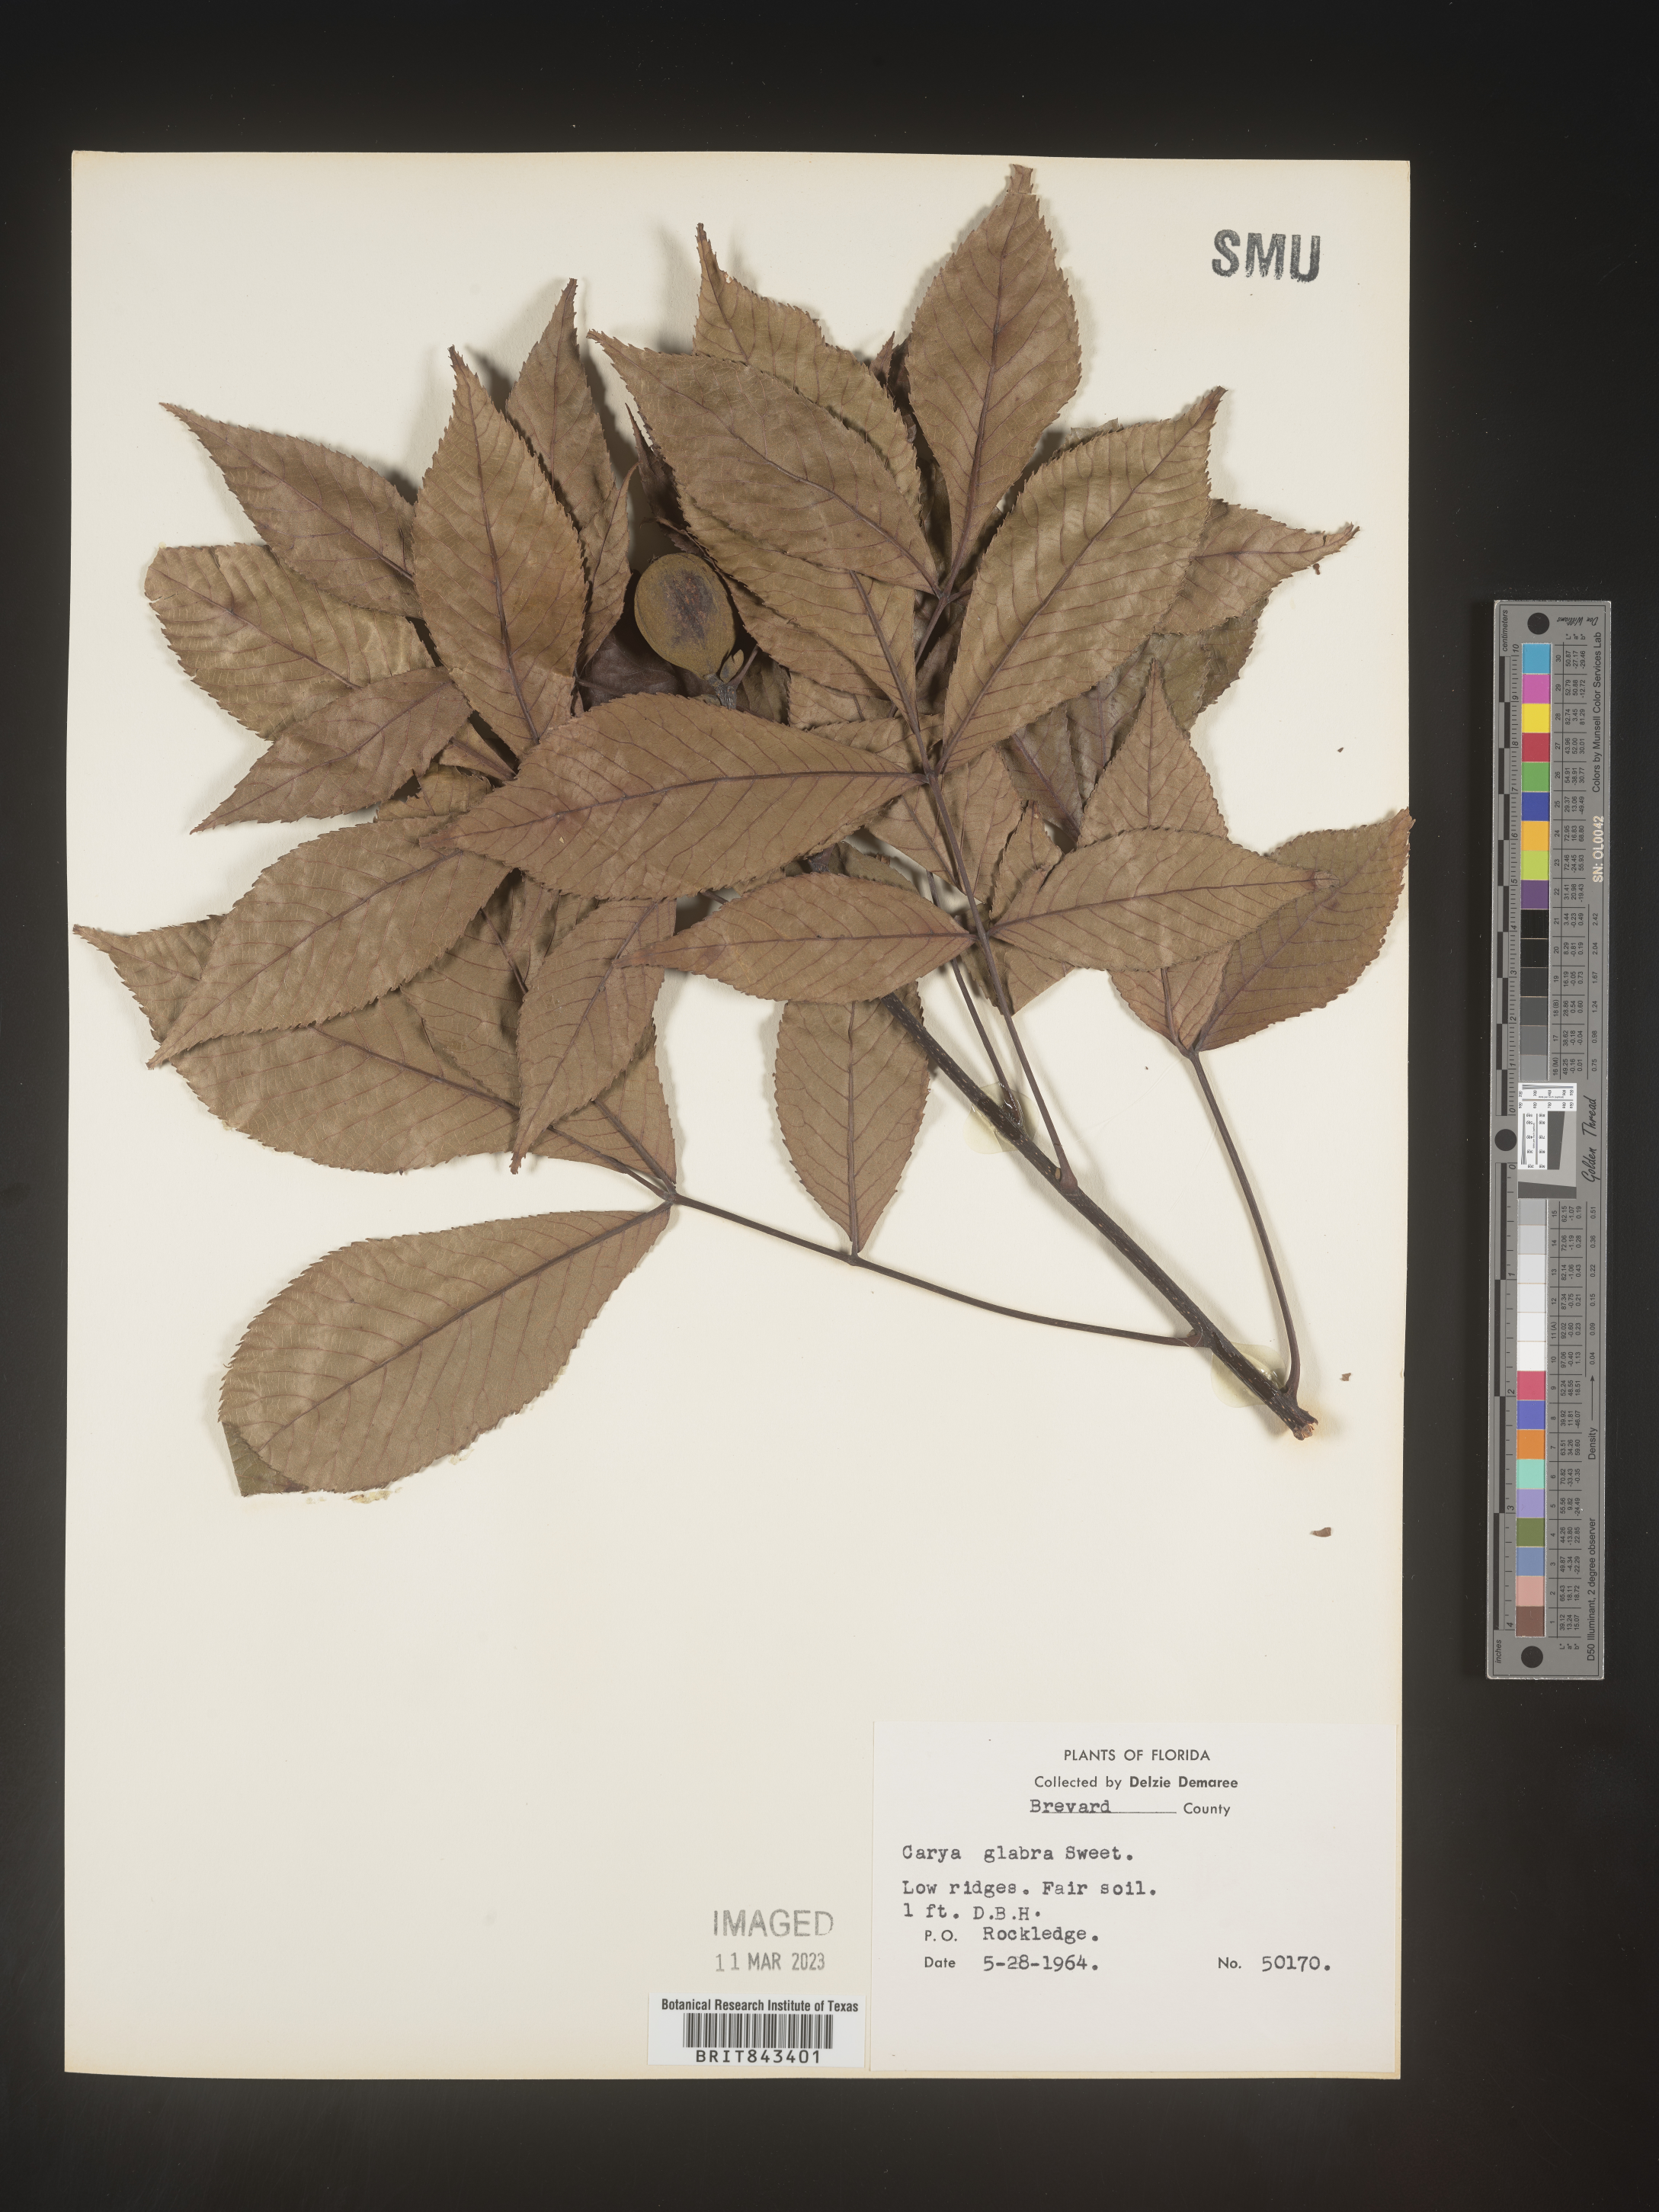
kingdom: Plantae
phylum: Tracheophyta
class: Magnoliopsida
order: Fagales
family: Juglandaceae
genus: Carya
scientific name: Carya glabra
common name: Pignut hickory
